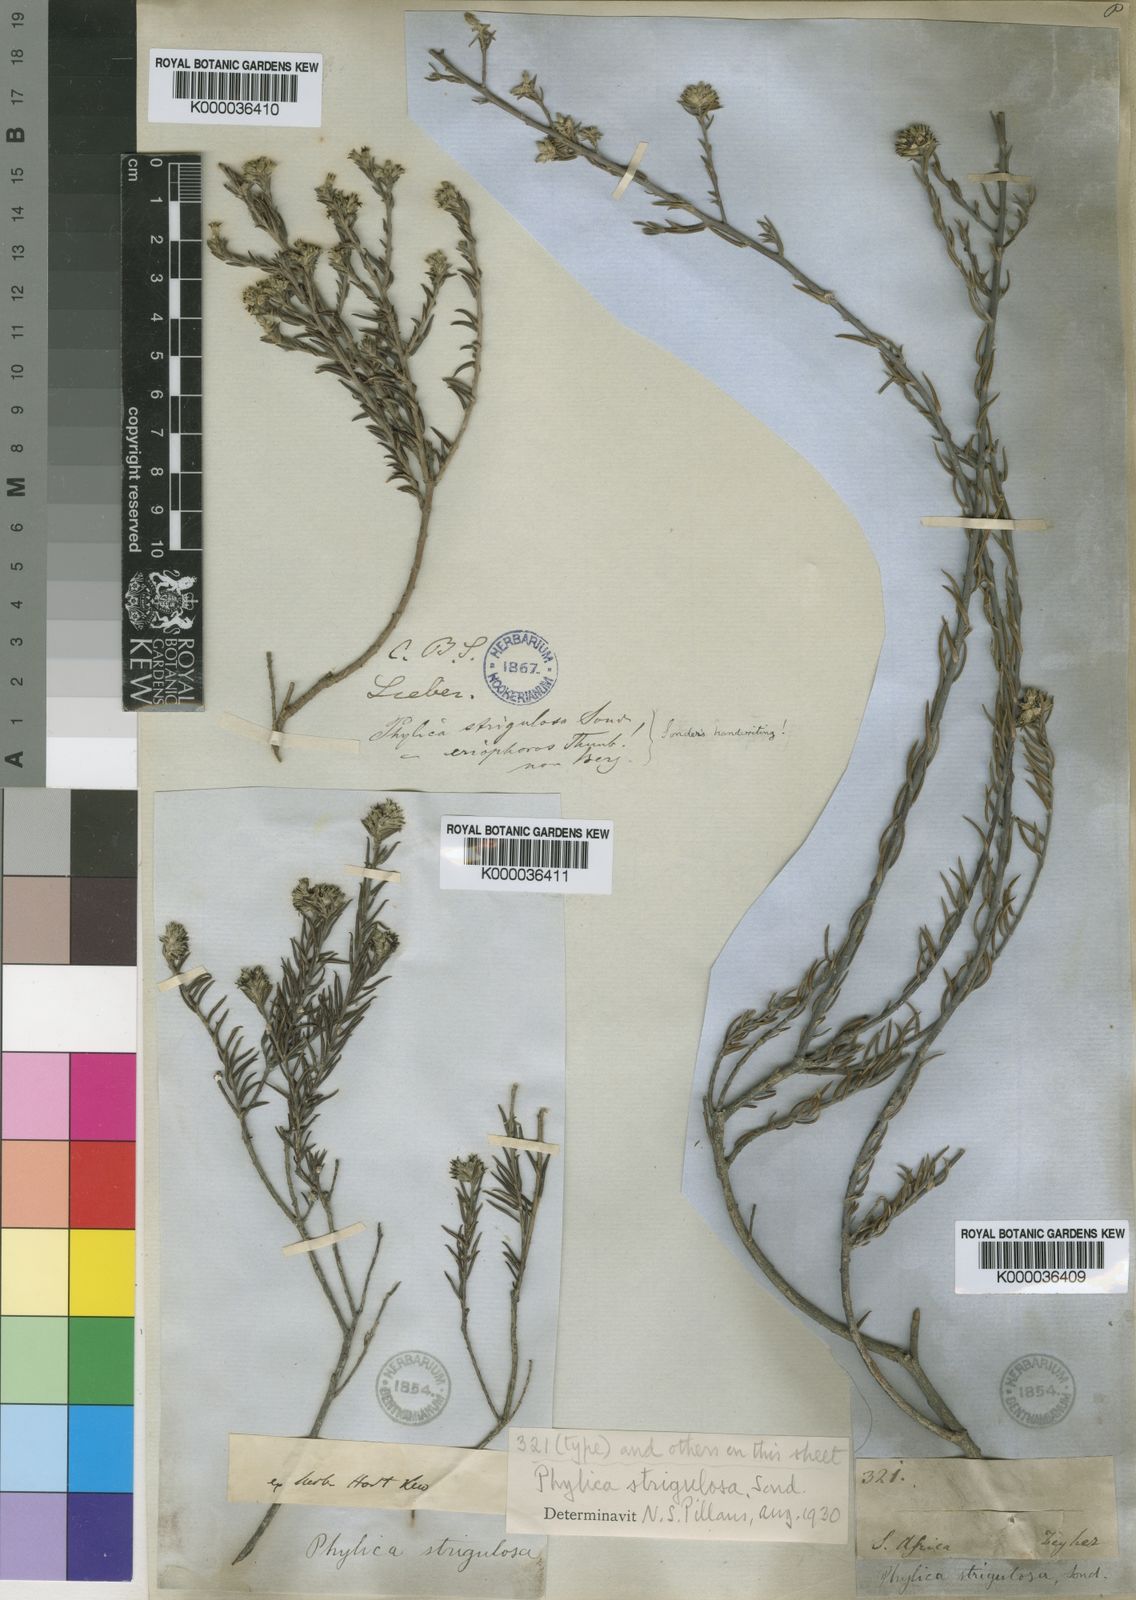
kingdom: Plantae
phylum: Tracheophyta
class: Magnoliopsida
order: Rosales
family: Rhamnaceae
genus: Phylica
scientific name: Phylica strigulosa
